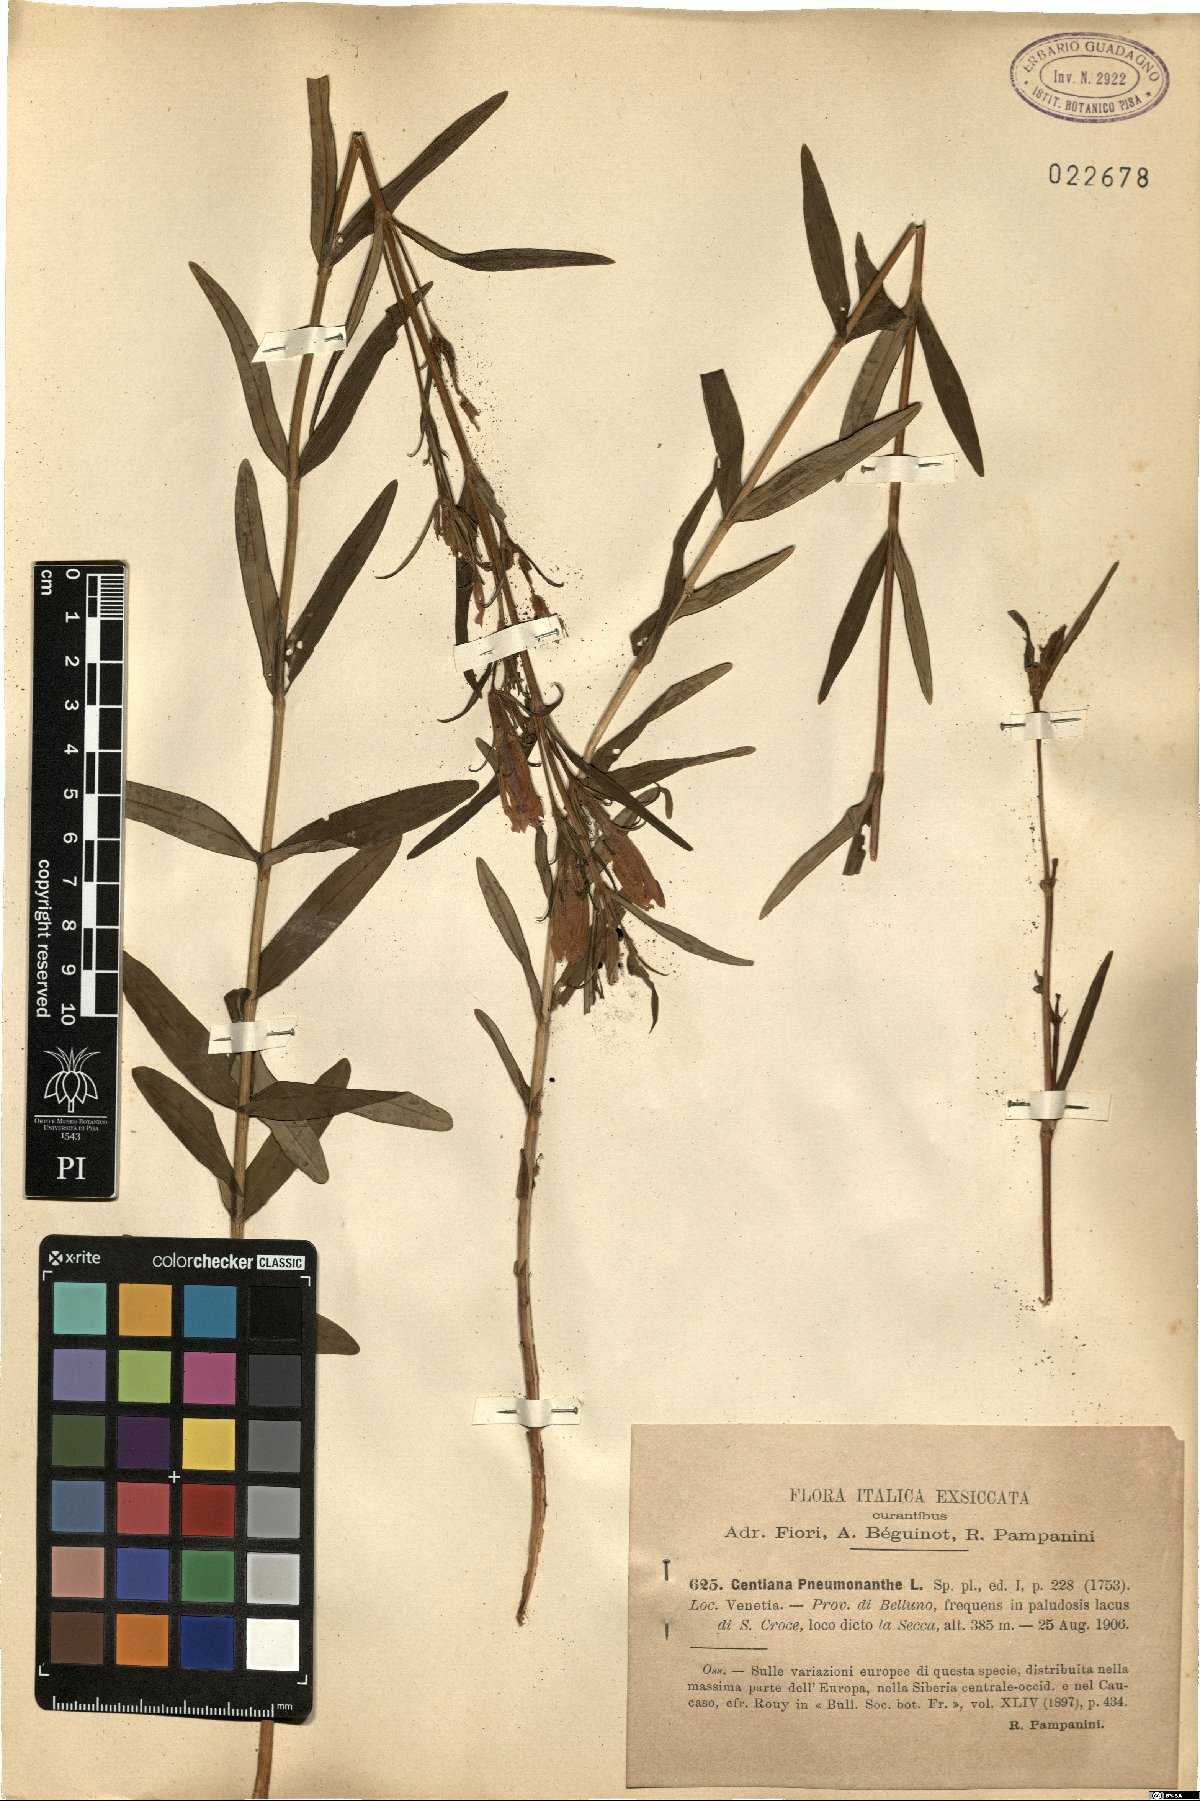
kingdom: Plantae
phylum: Tracheophyta
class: Magnoliopsida
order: Gentianales
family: Gentianaceae
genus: Gentiana
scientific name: Gentiana pneumonanthe
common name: Marsh gentian
